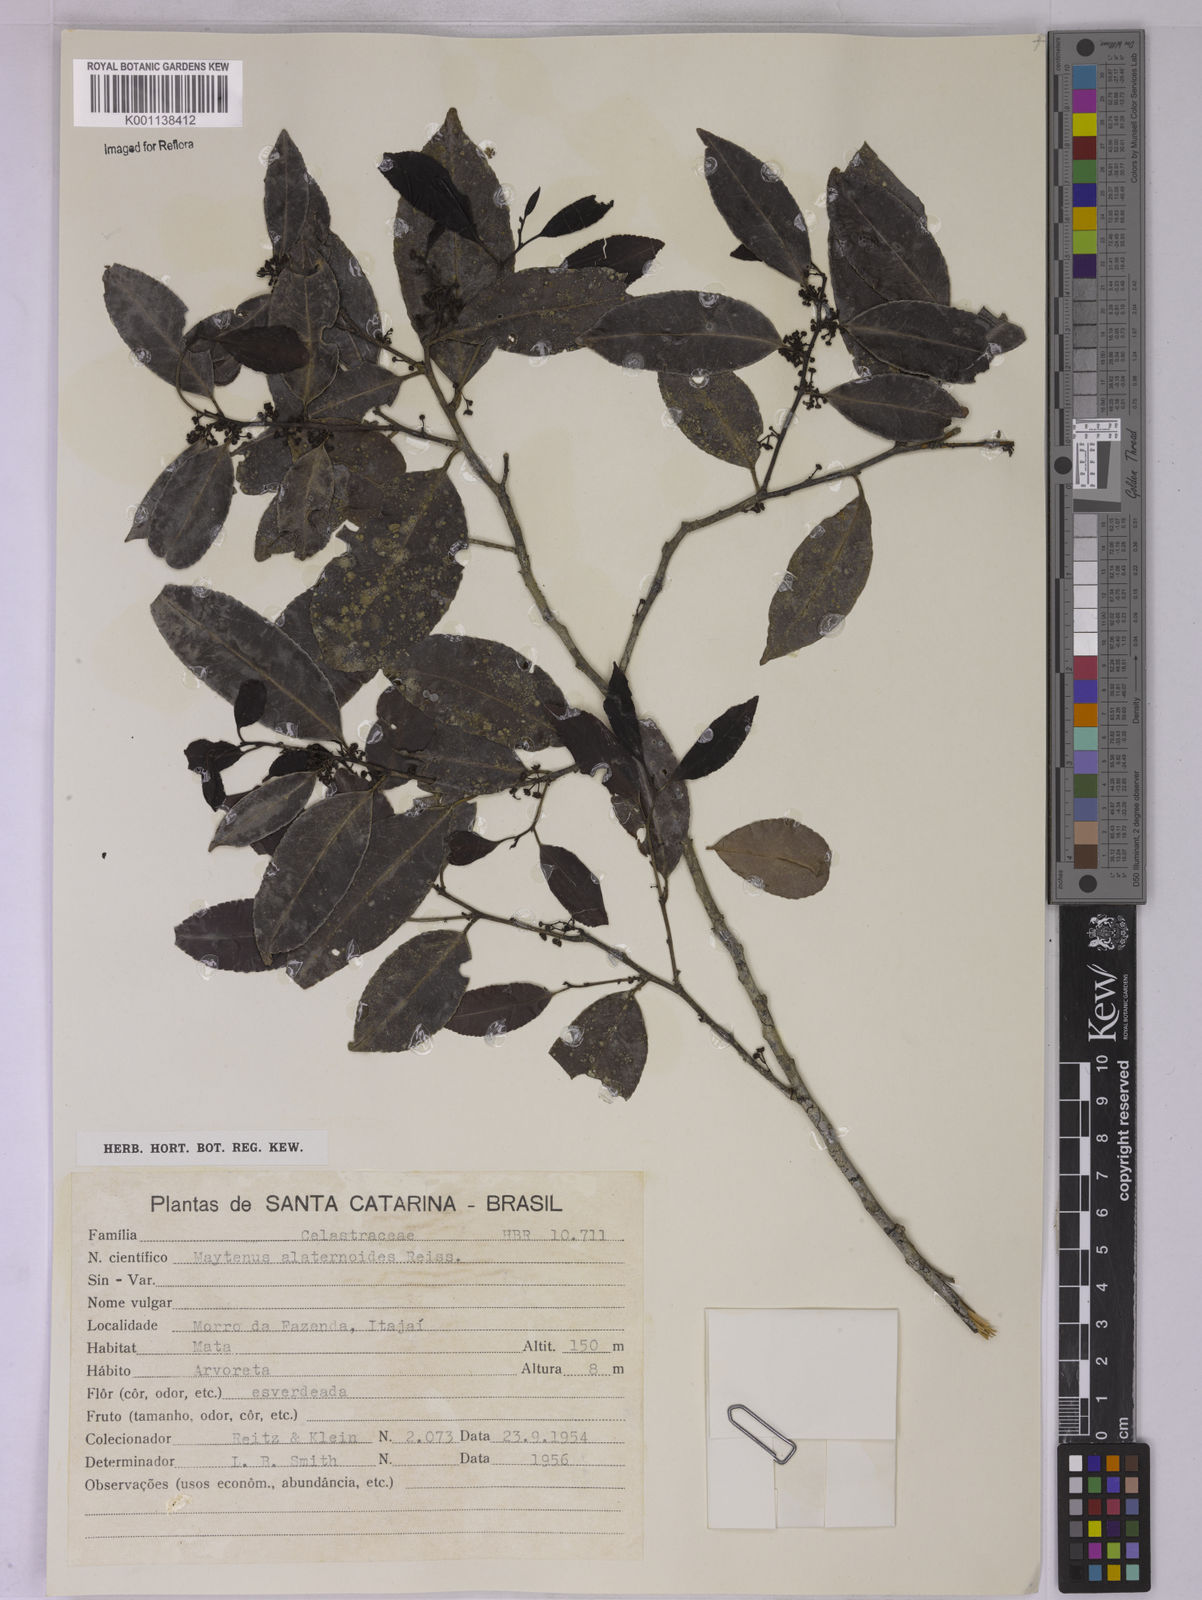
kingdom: Plantae
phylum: Tracheophyta
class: Magnoliopsida
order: Celastrales
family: Celastraceae
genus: Maytenus
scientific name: Maytenus alaternoides
